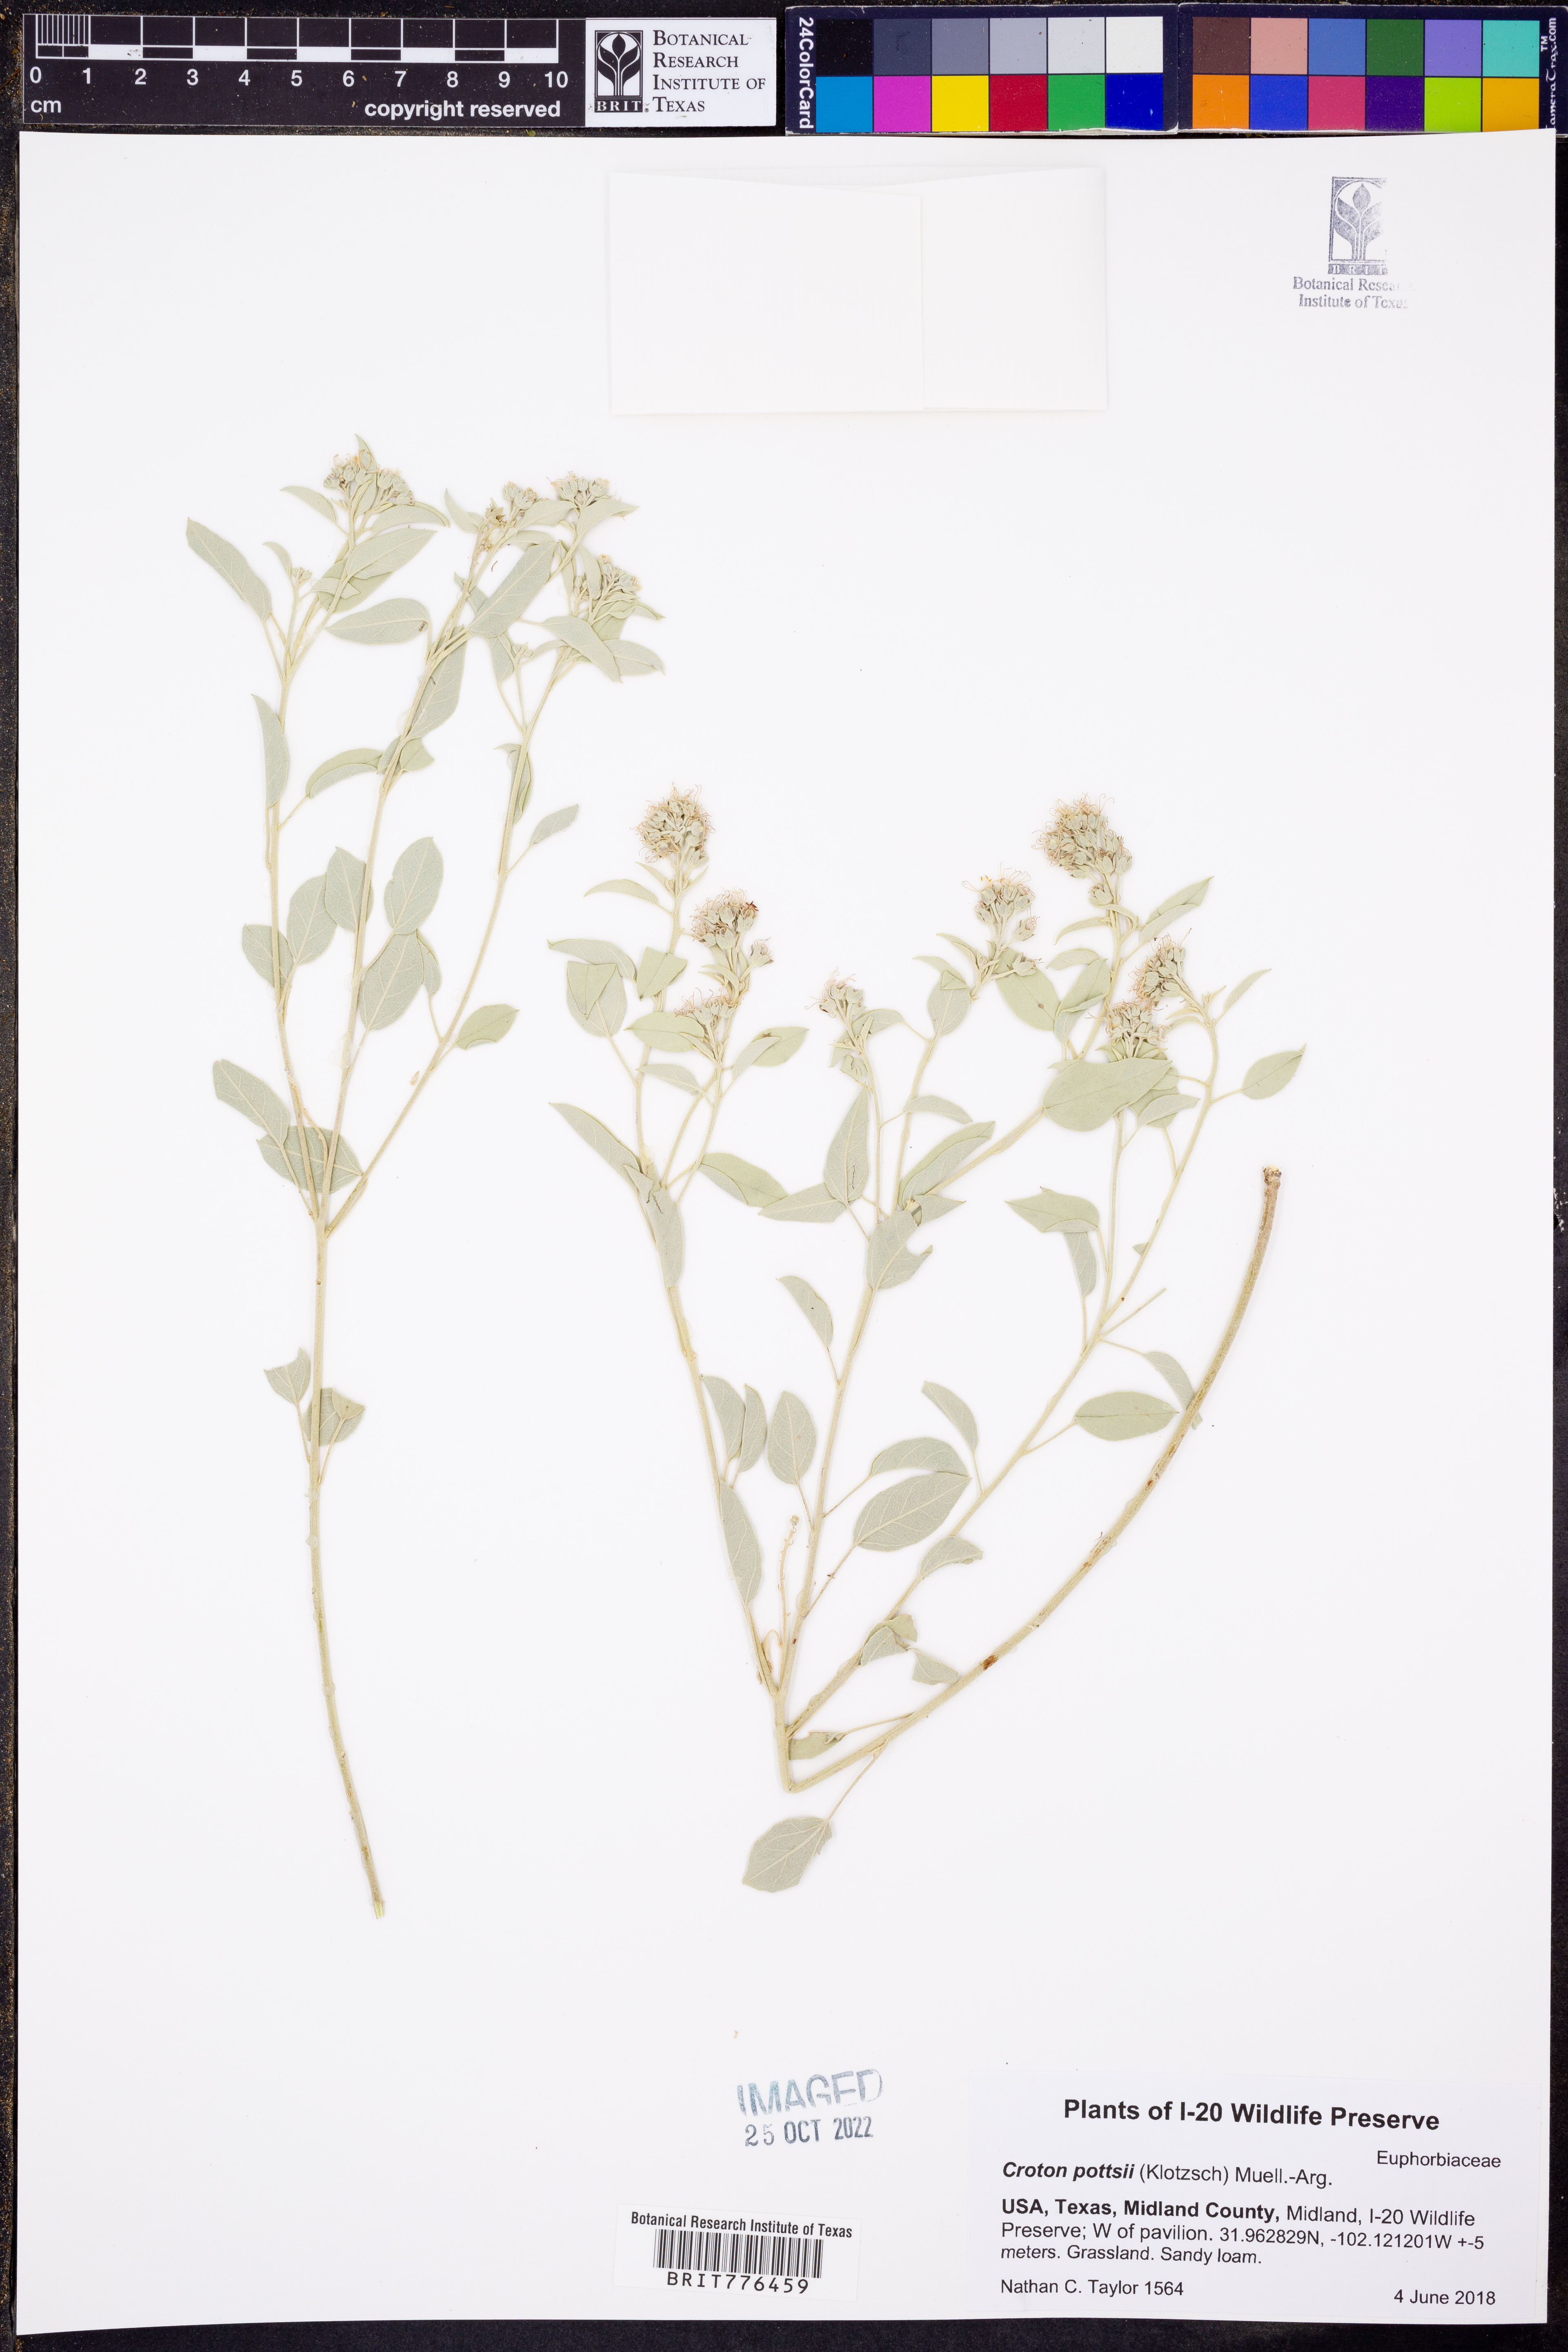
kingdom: Plantae
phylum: Tracheophyta
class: Magnoliopsida
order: Malpighiales
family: Euphorbiaceae
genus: Croton
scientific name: Croton pottsii
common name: Leatherweed
